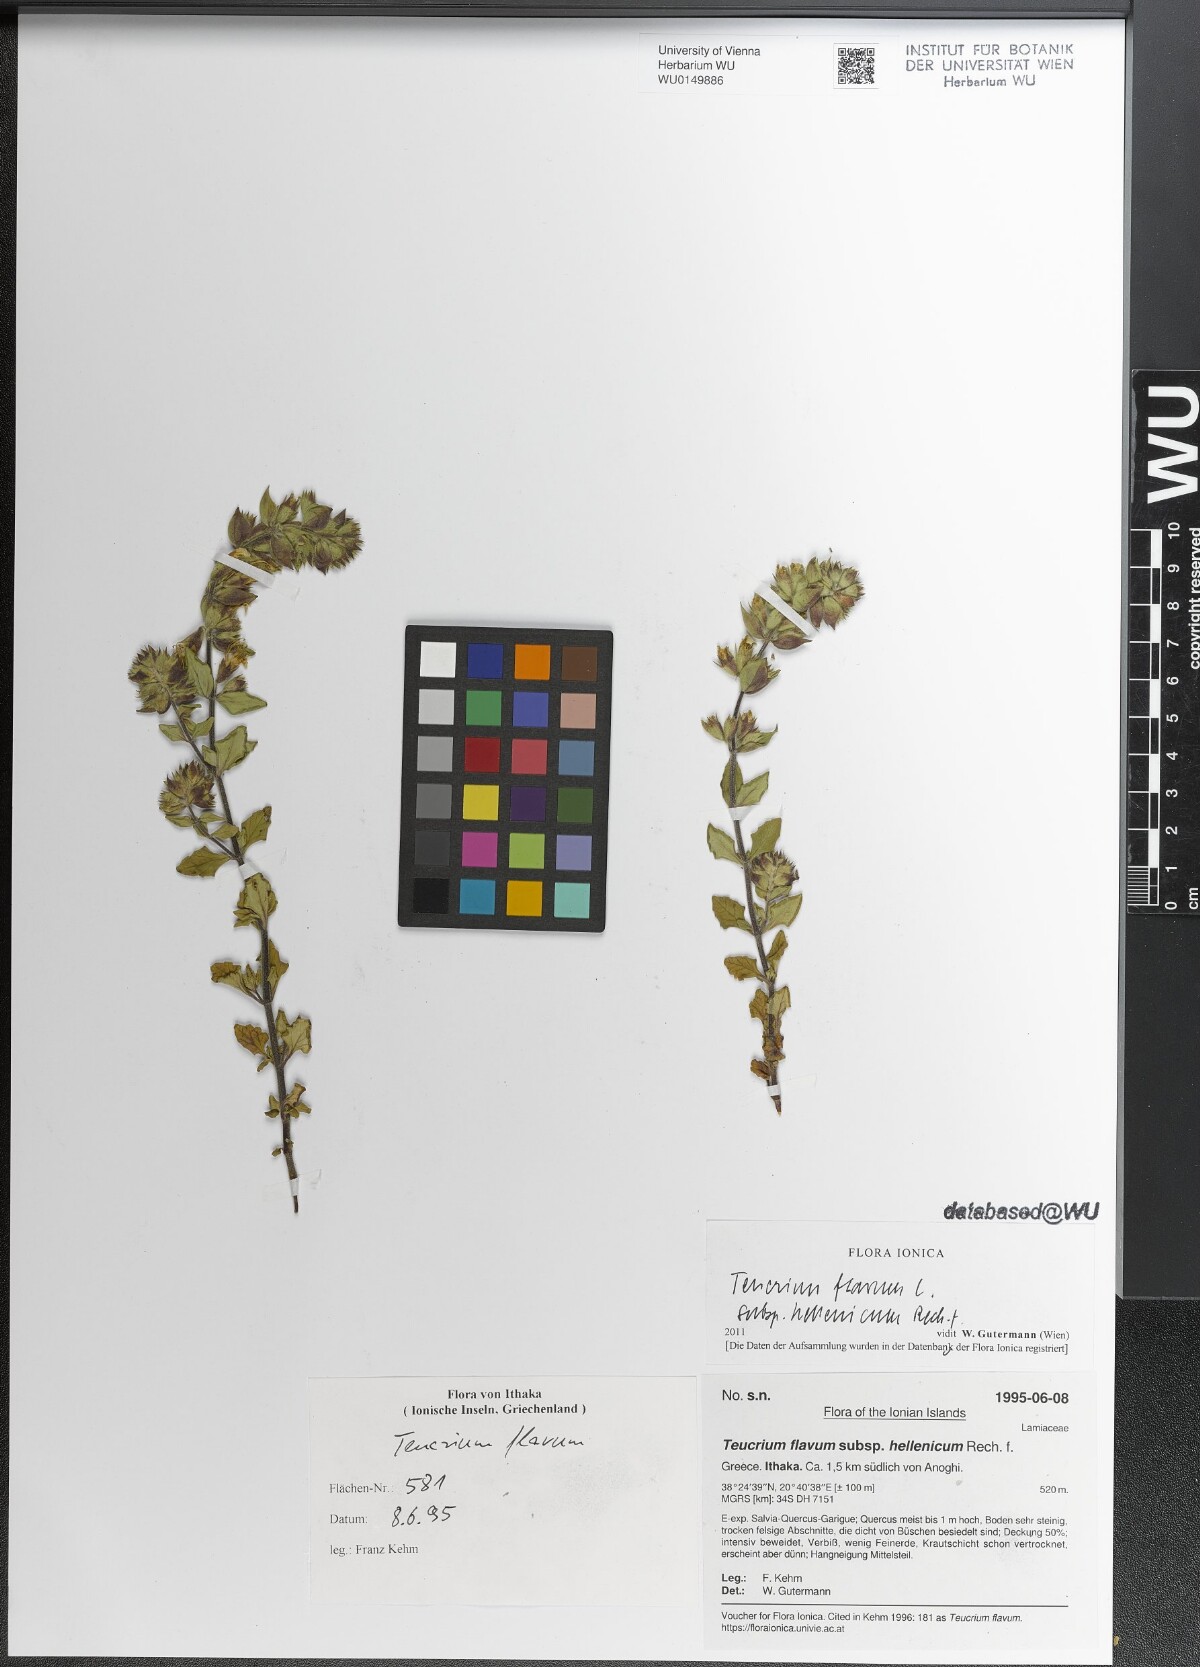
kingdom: Plantae
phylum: Tracheophyta
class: Magnoliopsida
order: Lamiales
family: Lamiaceae
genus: Teucrium
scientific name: Teucrium flavum
